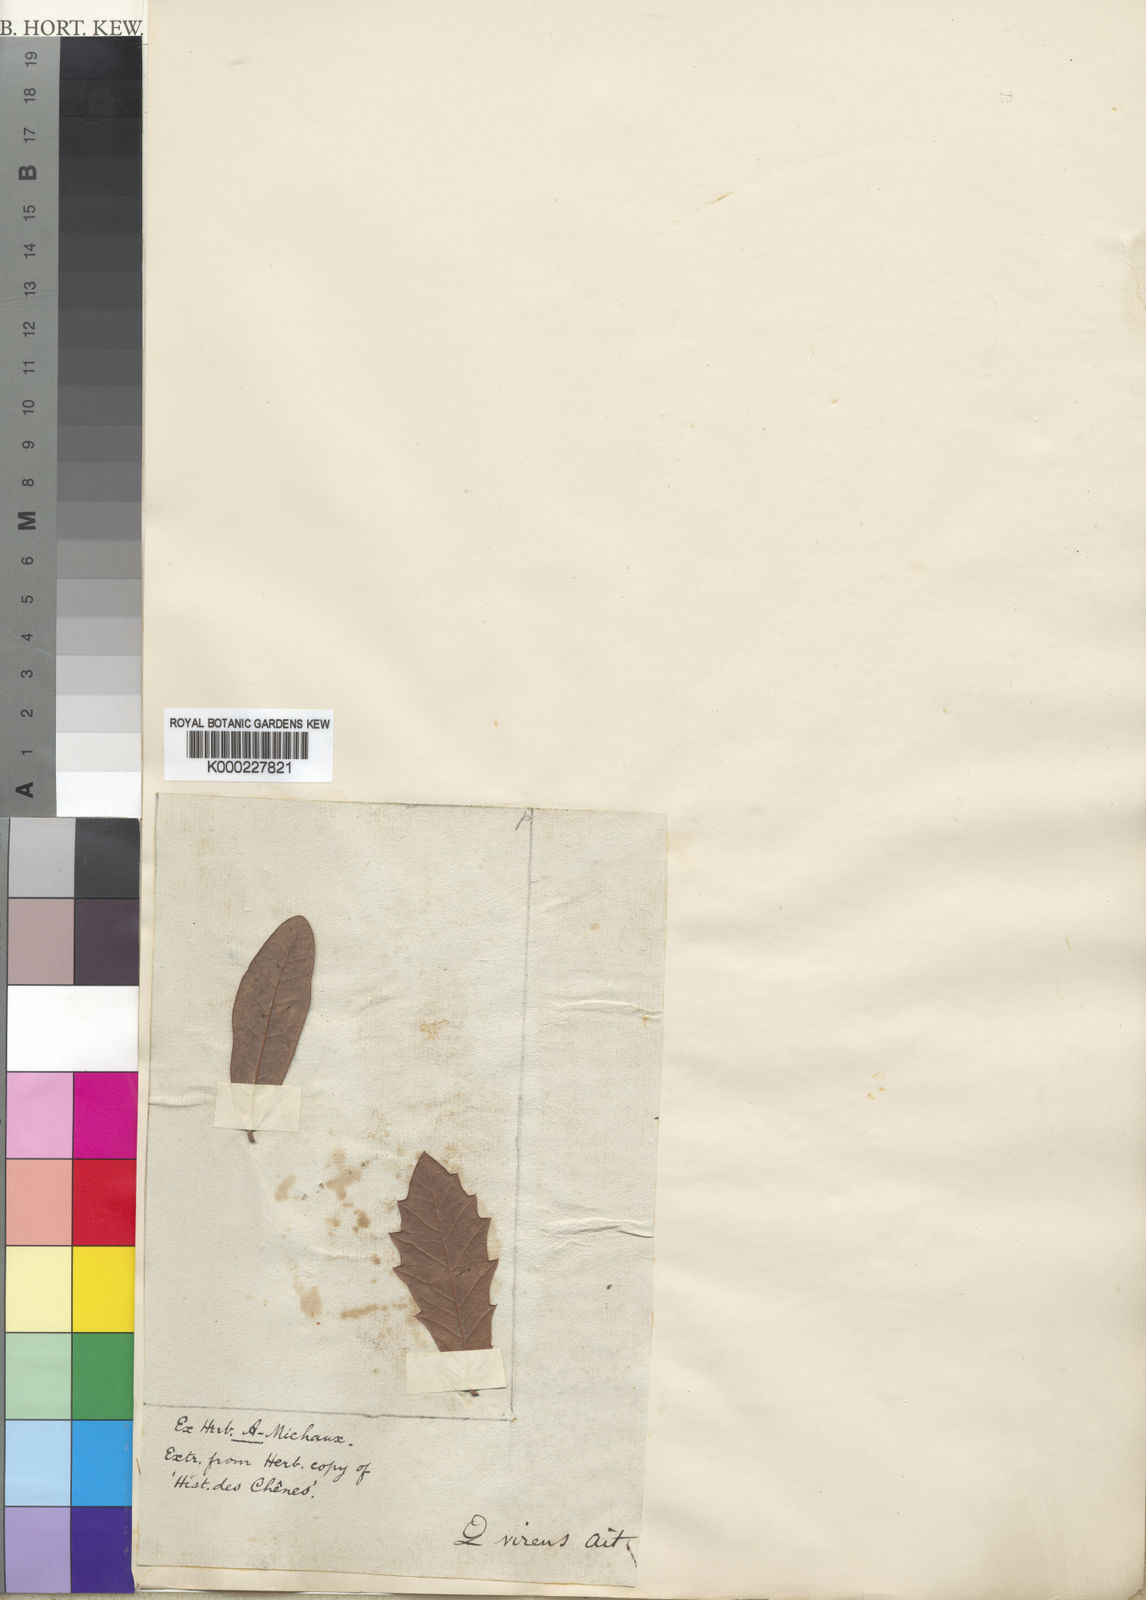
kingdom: Plantae
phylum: Tracheophyta
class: Magnoliopsida
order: Fagales
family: Fagaceae
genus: Quercus
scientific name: Quercus virginiana
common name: Southern live oak
